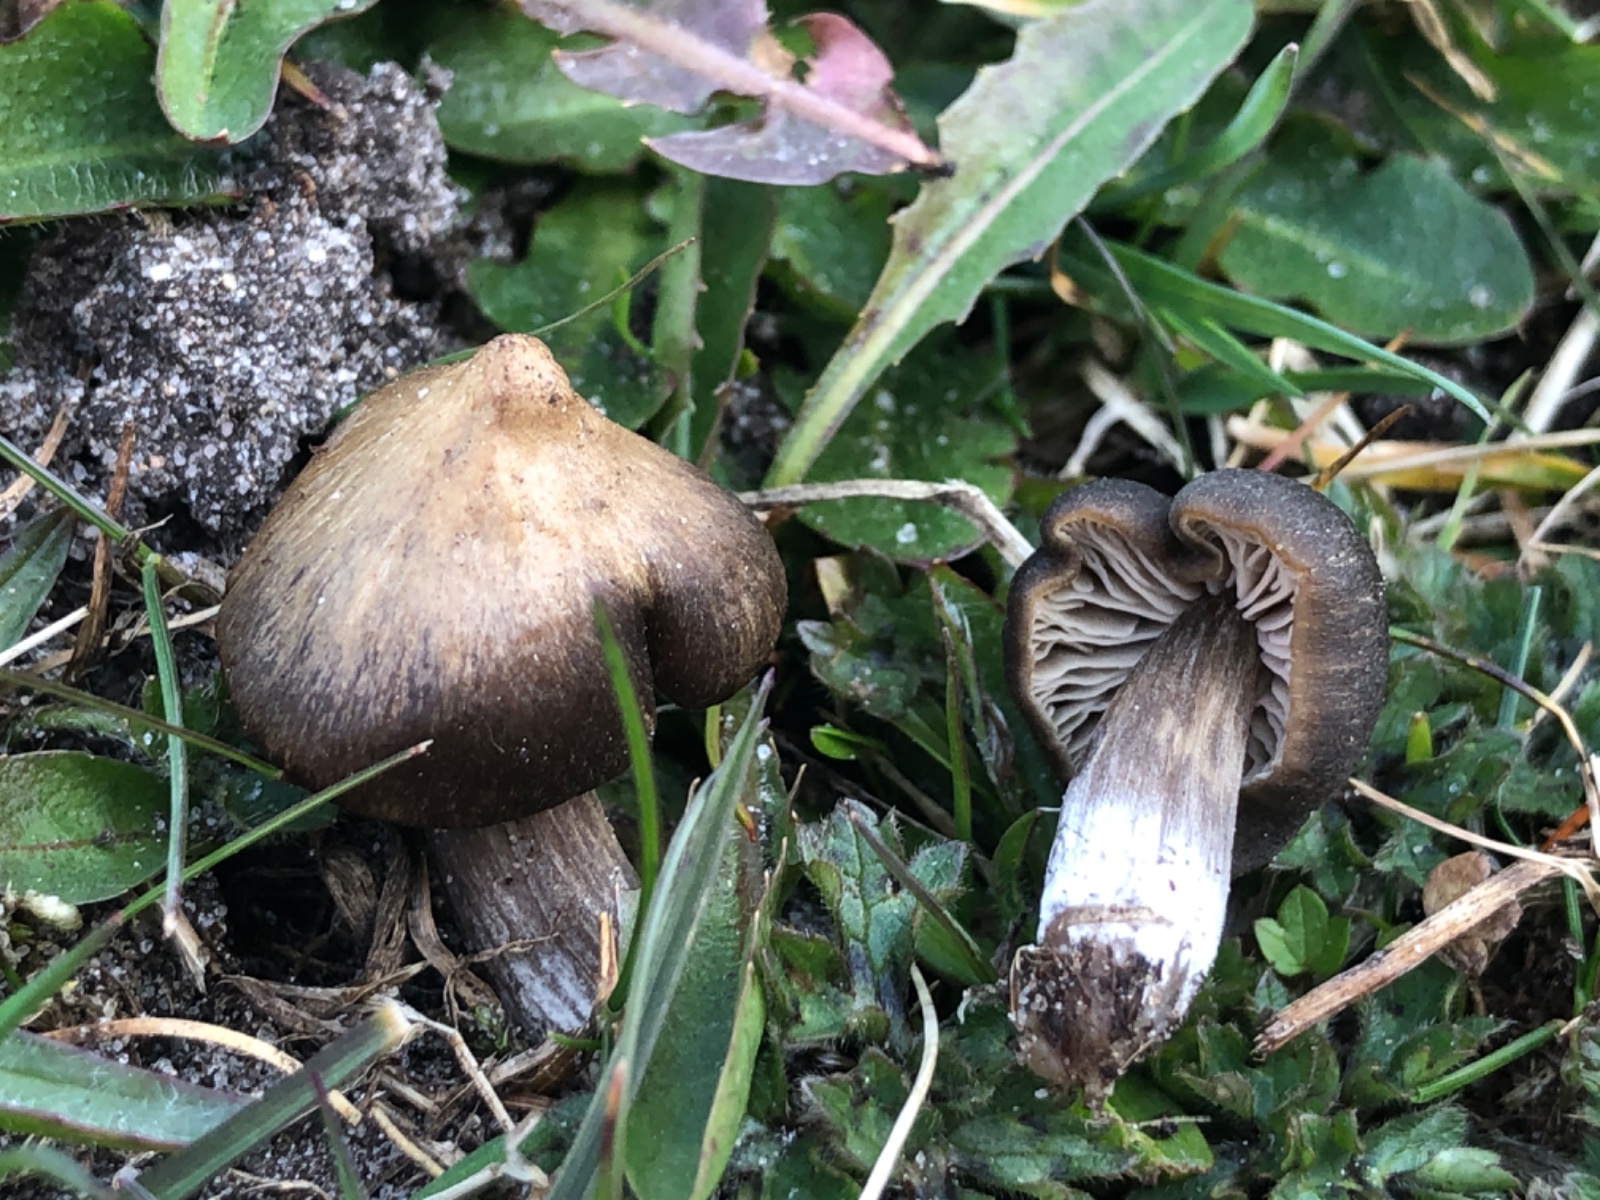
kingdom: Fungi
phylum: Basidiomycota
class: Agaricomycetes
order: Agaricales
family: Entolomataceae
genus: Entoloma
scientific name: Entoloma vernum
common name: vår-rødblad
